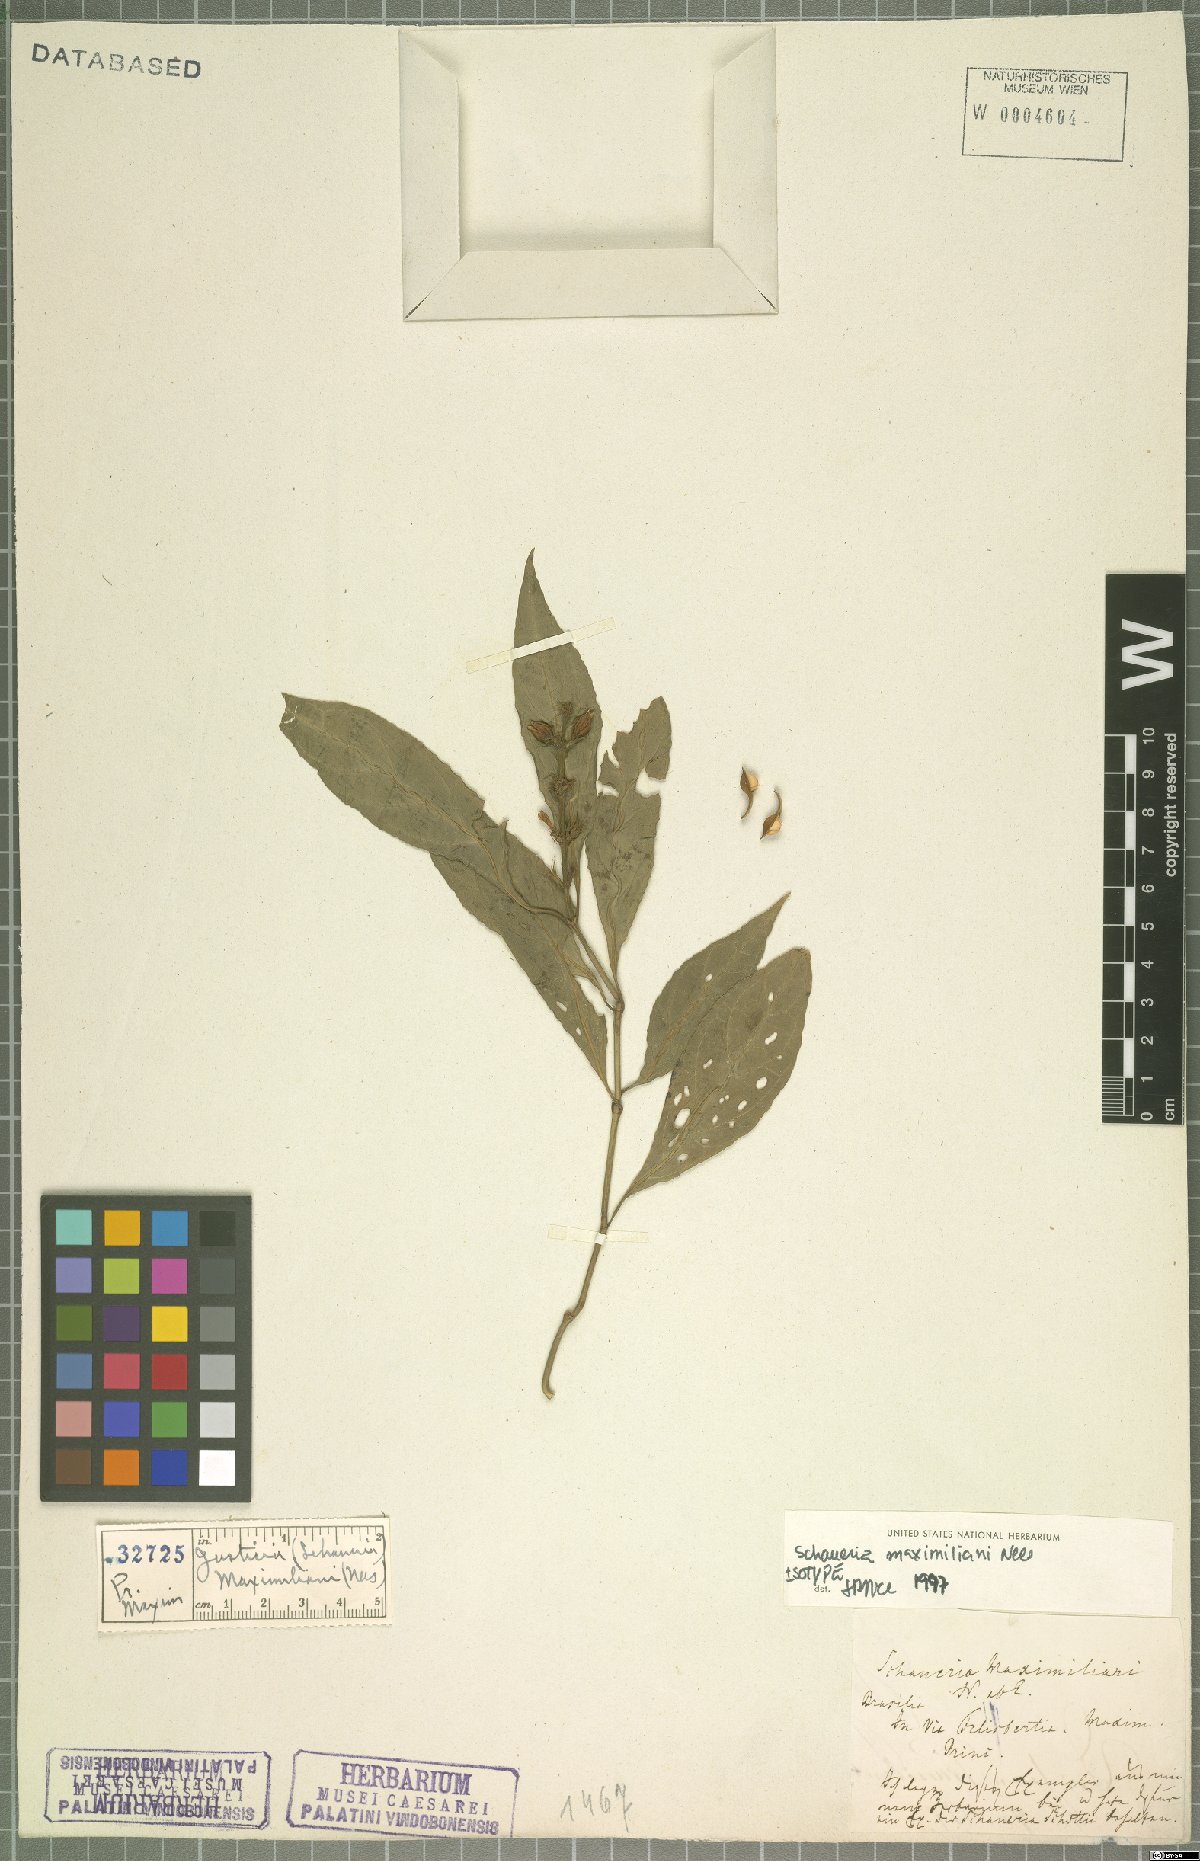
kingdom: Plantae
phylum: Tracheophyta
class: Magnoliopsida
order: Lamiales
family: Acanthaceae
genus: Justicia
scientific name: Justicia maximiliani
